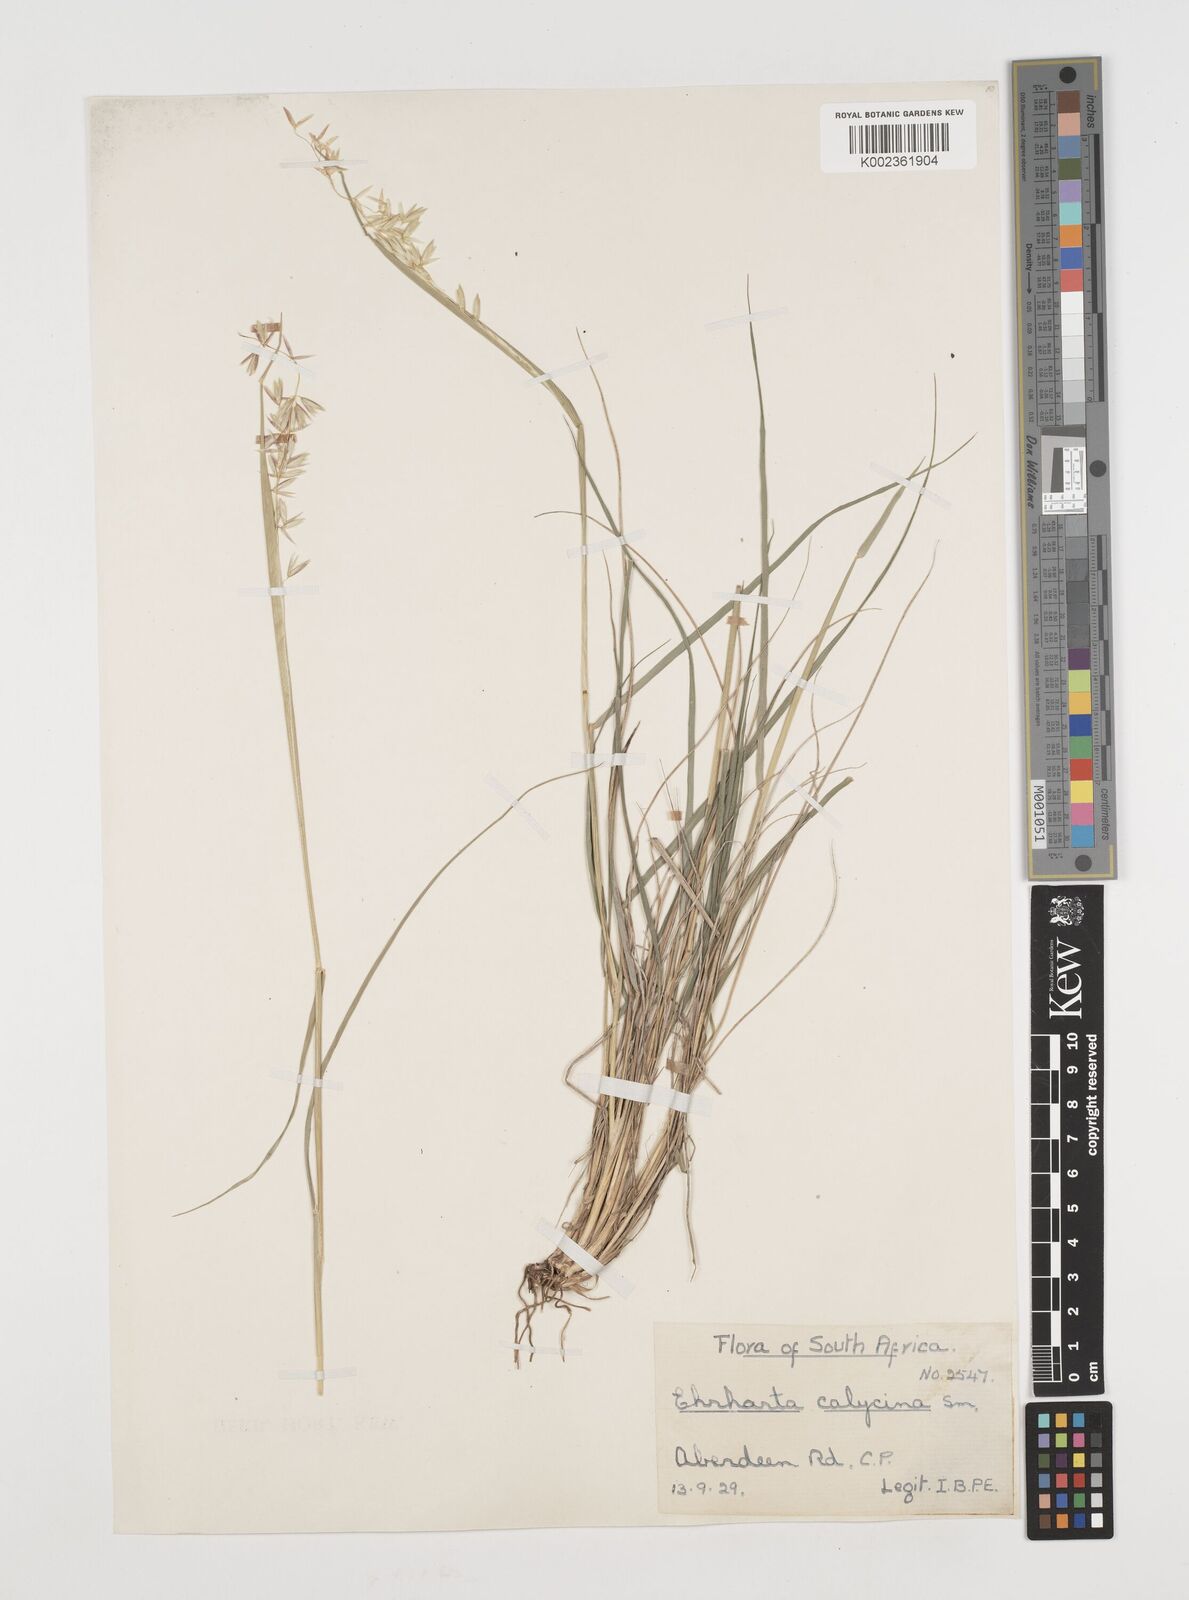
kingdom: Plantae
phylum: Tracheophyta
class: Liliopsida
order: Poales
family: Poaceae
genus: Ehrharta
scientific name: Ehrharta calycina
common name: Perennial veldtgrass
